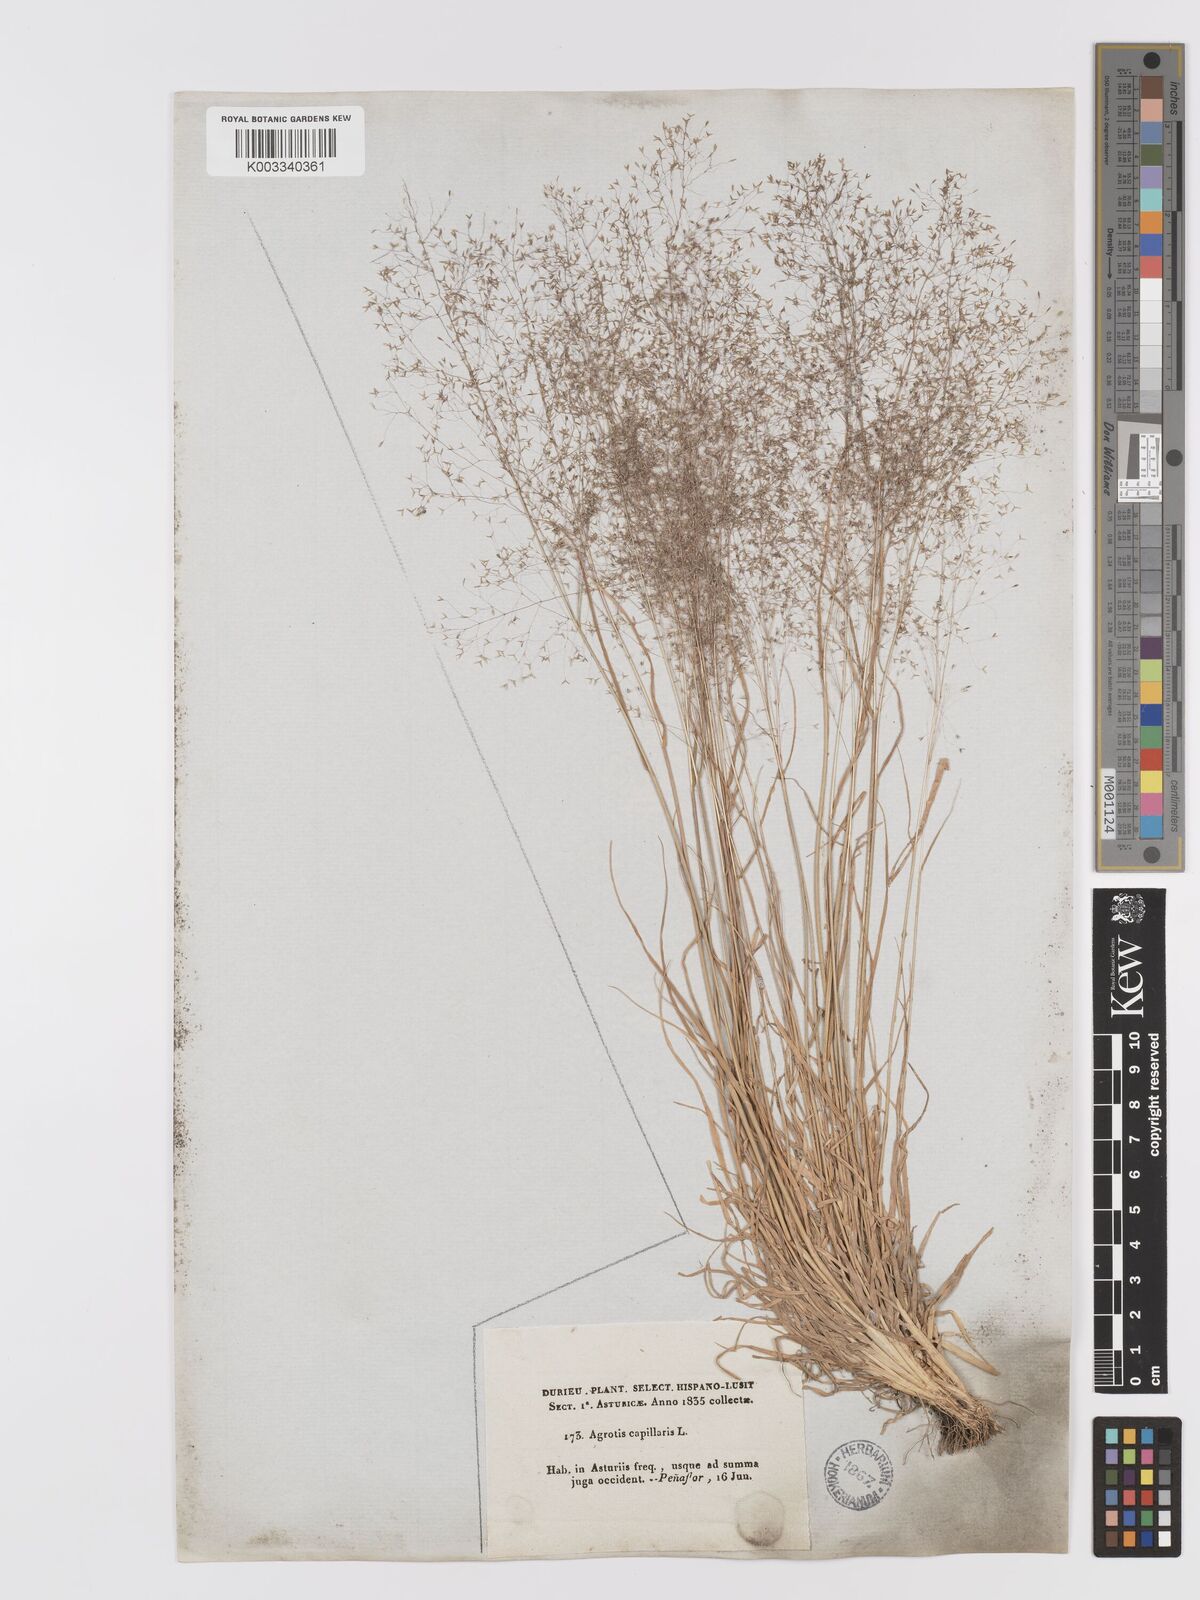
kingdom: Plantae
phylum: Tracheophyta
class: Liliopsida
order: Poales
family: Poaceae
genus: Agrostis
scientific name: Agrostis castellana
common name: Highland bent
